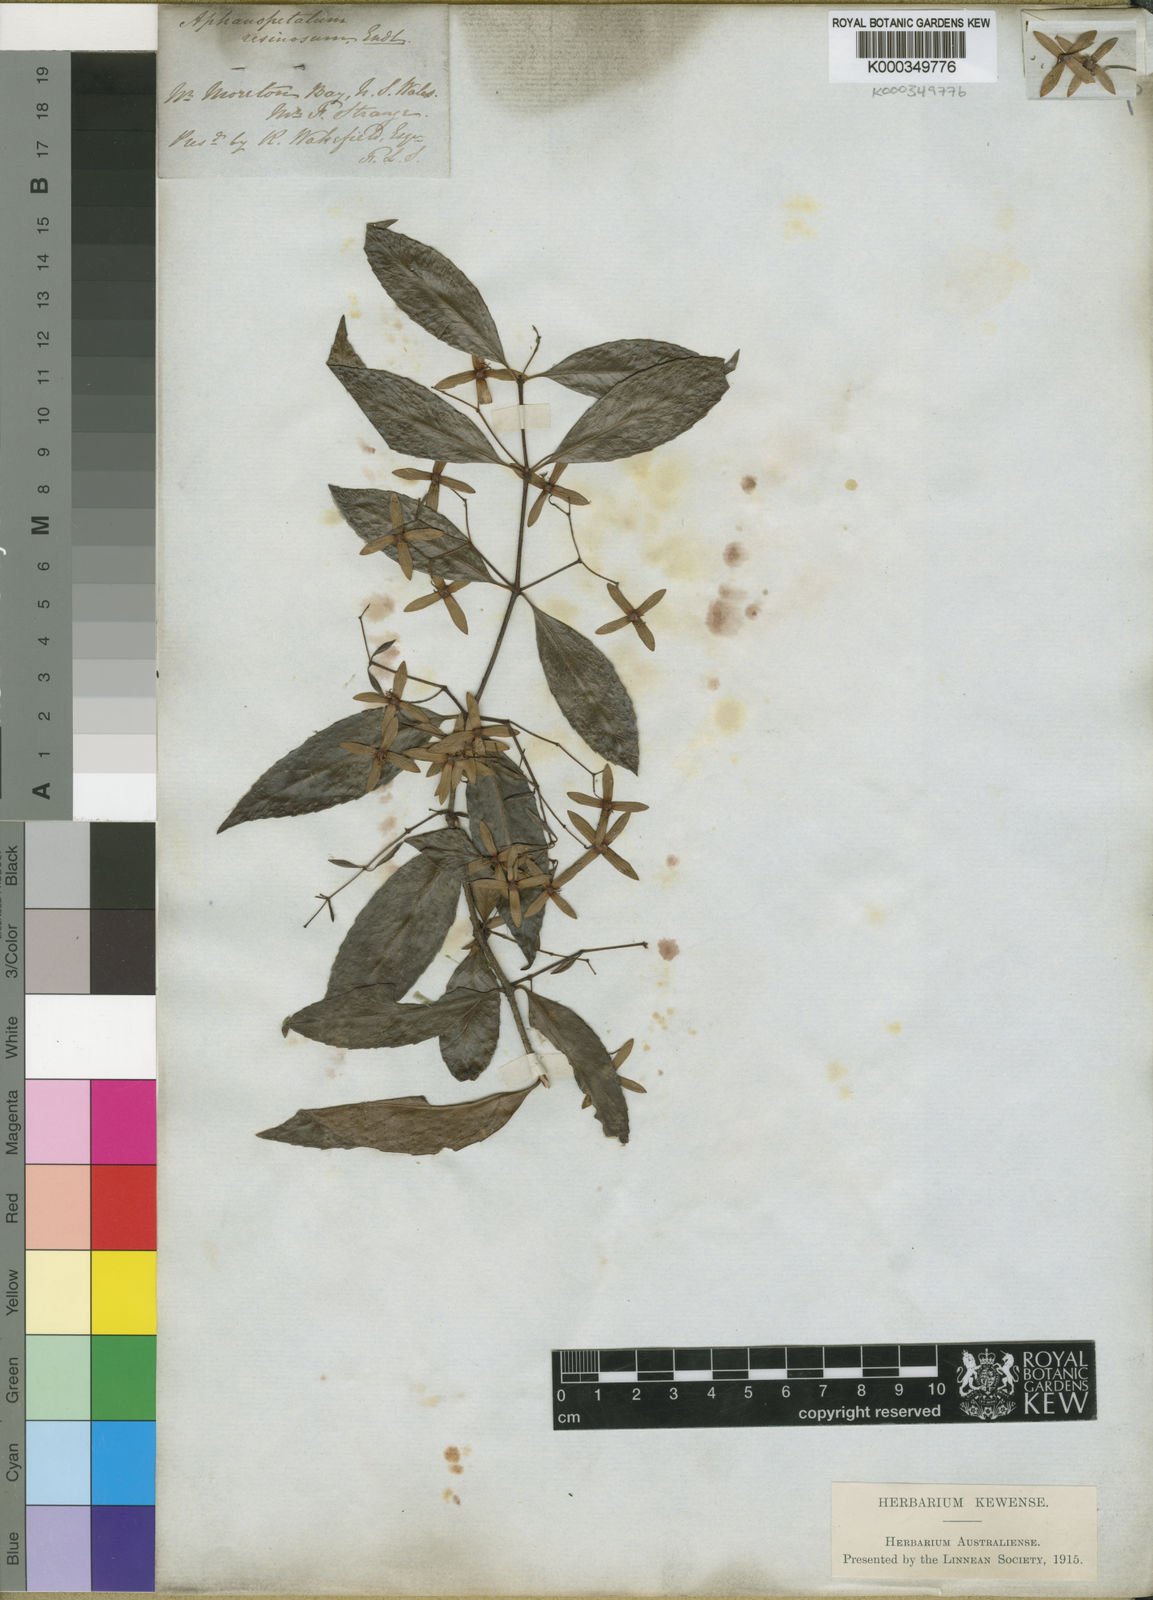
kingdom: Plantae
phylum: Tracheophyta
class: Magnoliopsida
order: Saxifragales
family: Aphanopetalaceae
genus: Aphanopetalum
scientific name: Aphanopetalum resinosum
